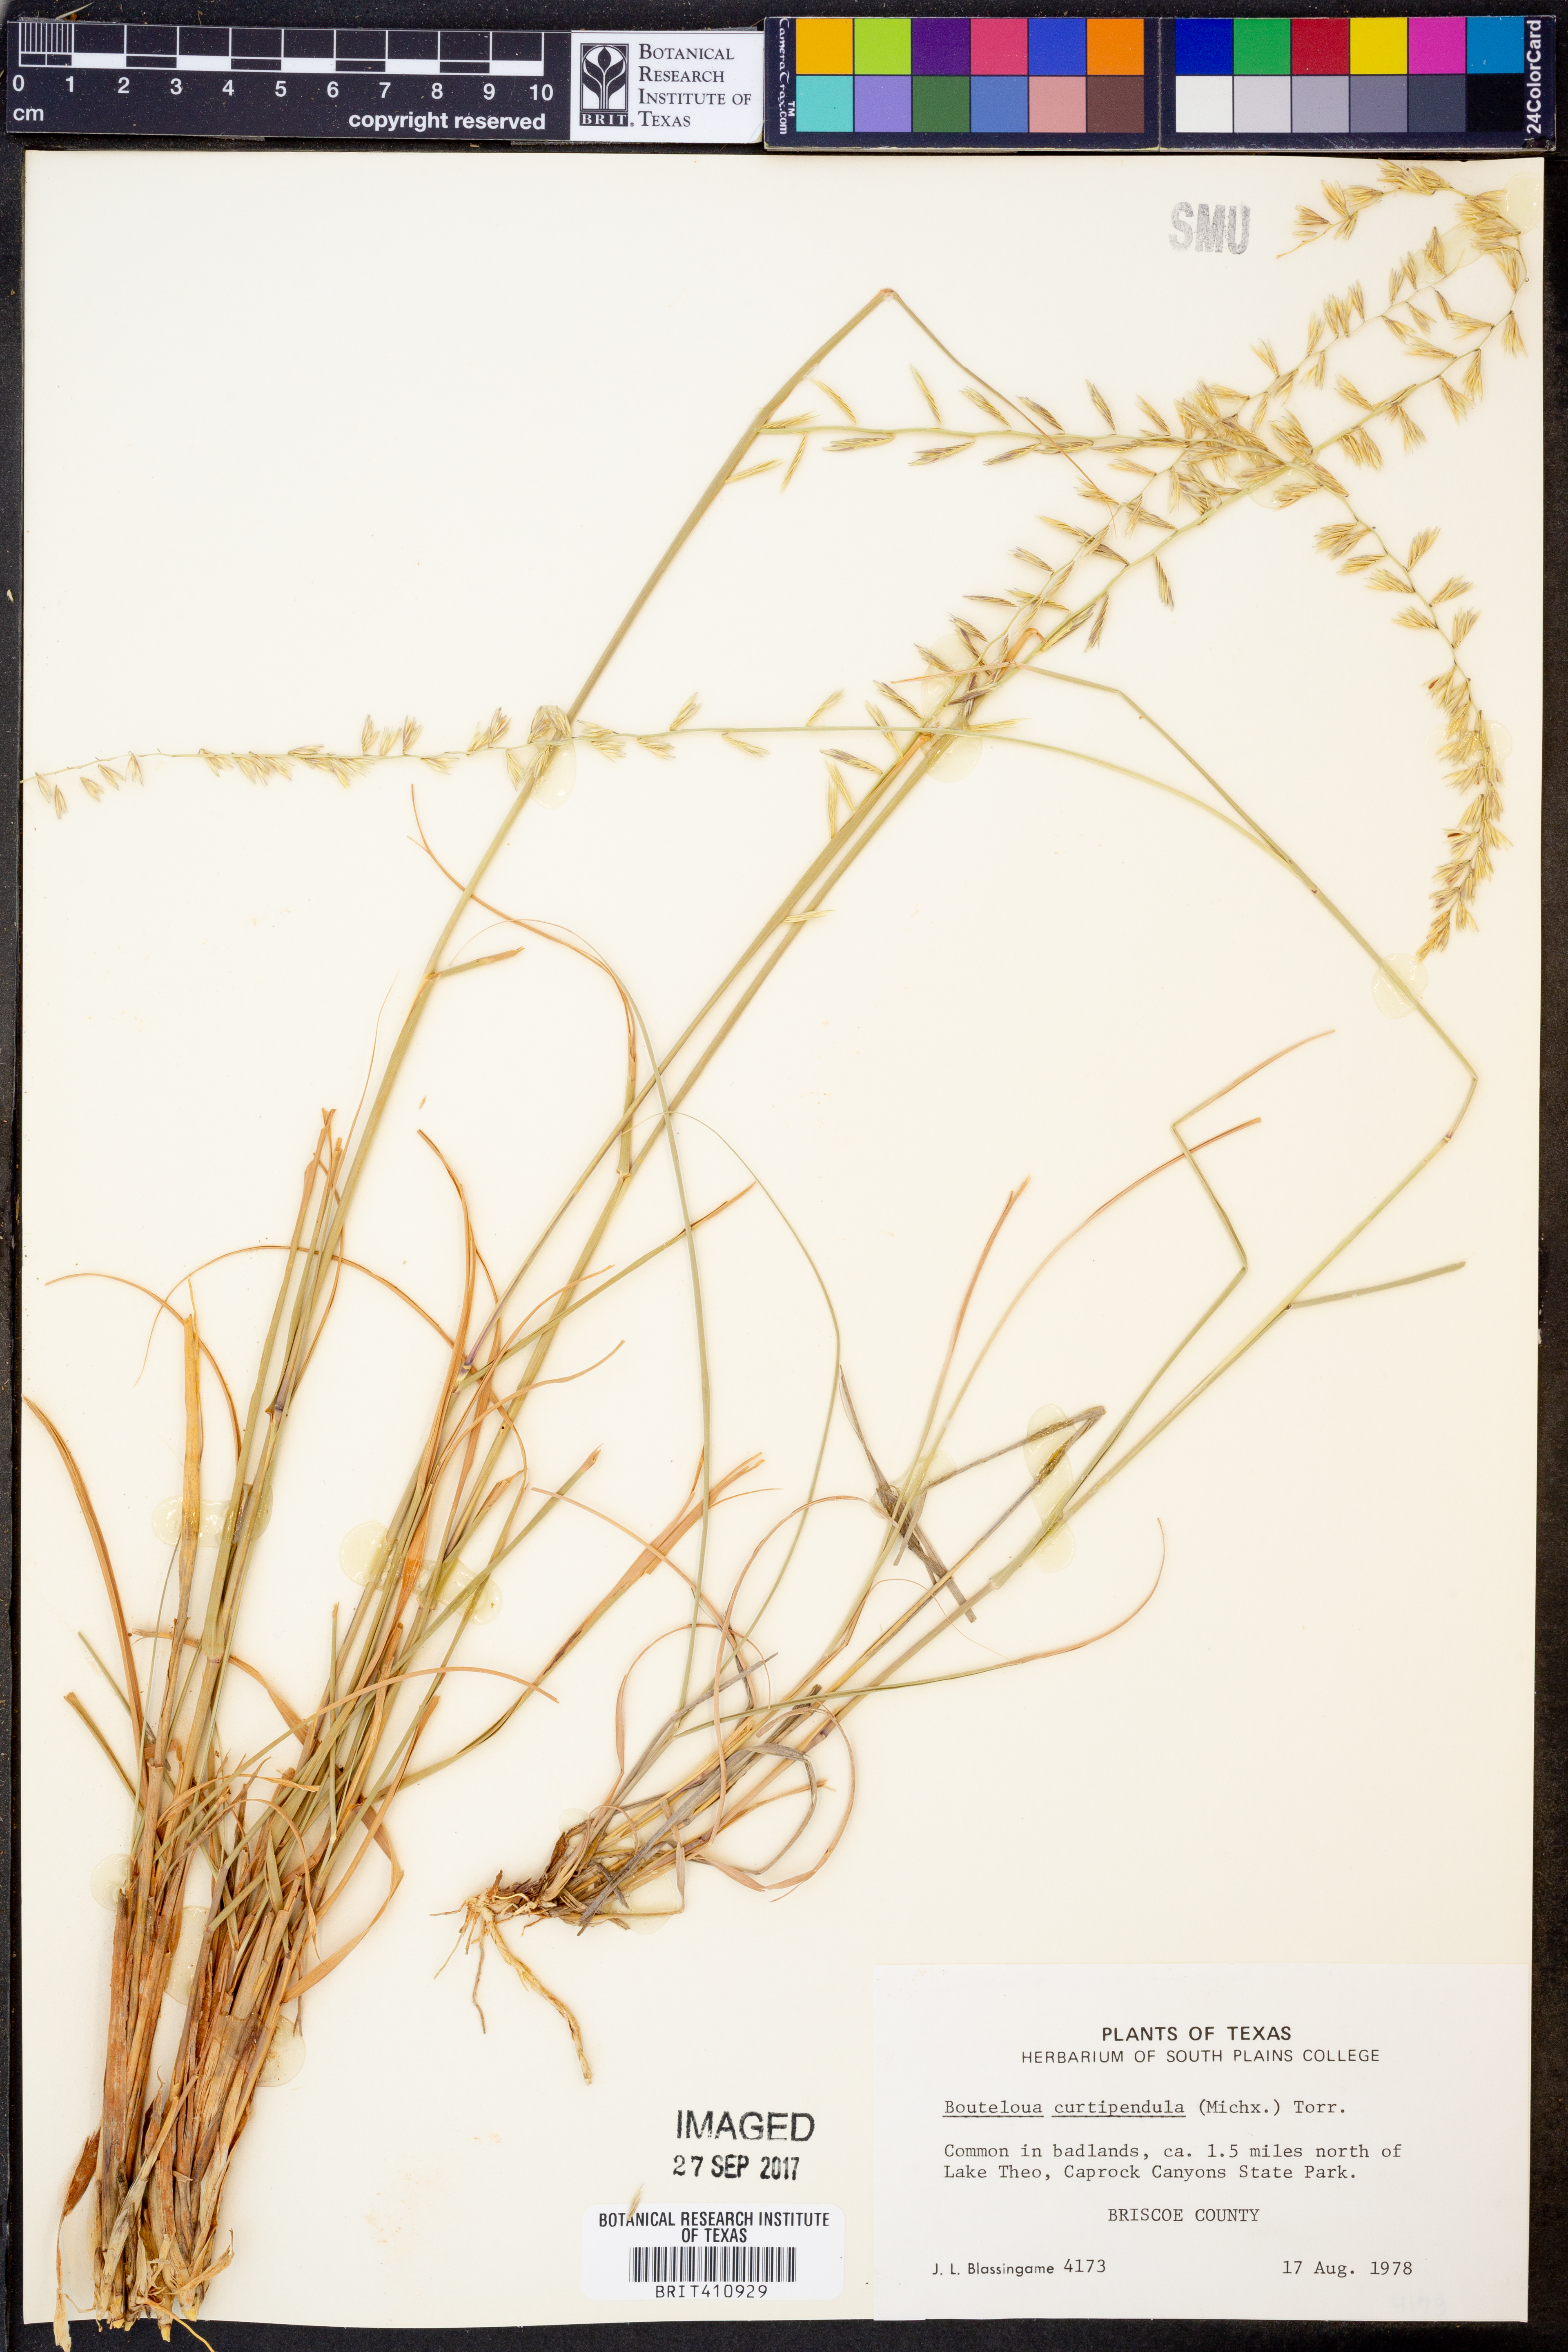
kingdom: Plantae
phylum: Tracheophyta
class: Liliopsida
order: Poales
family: Poaceae
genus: Bouteloua
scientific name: Bouteloua curtipendula
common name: Side-oats grama
